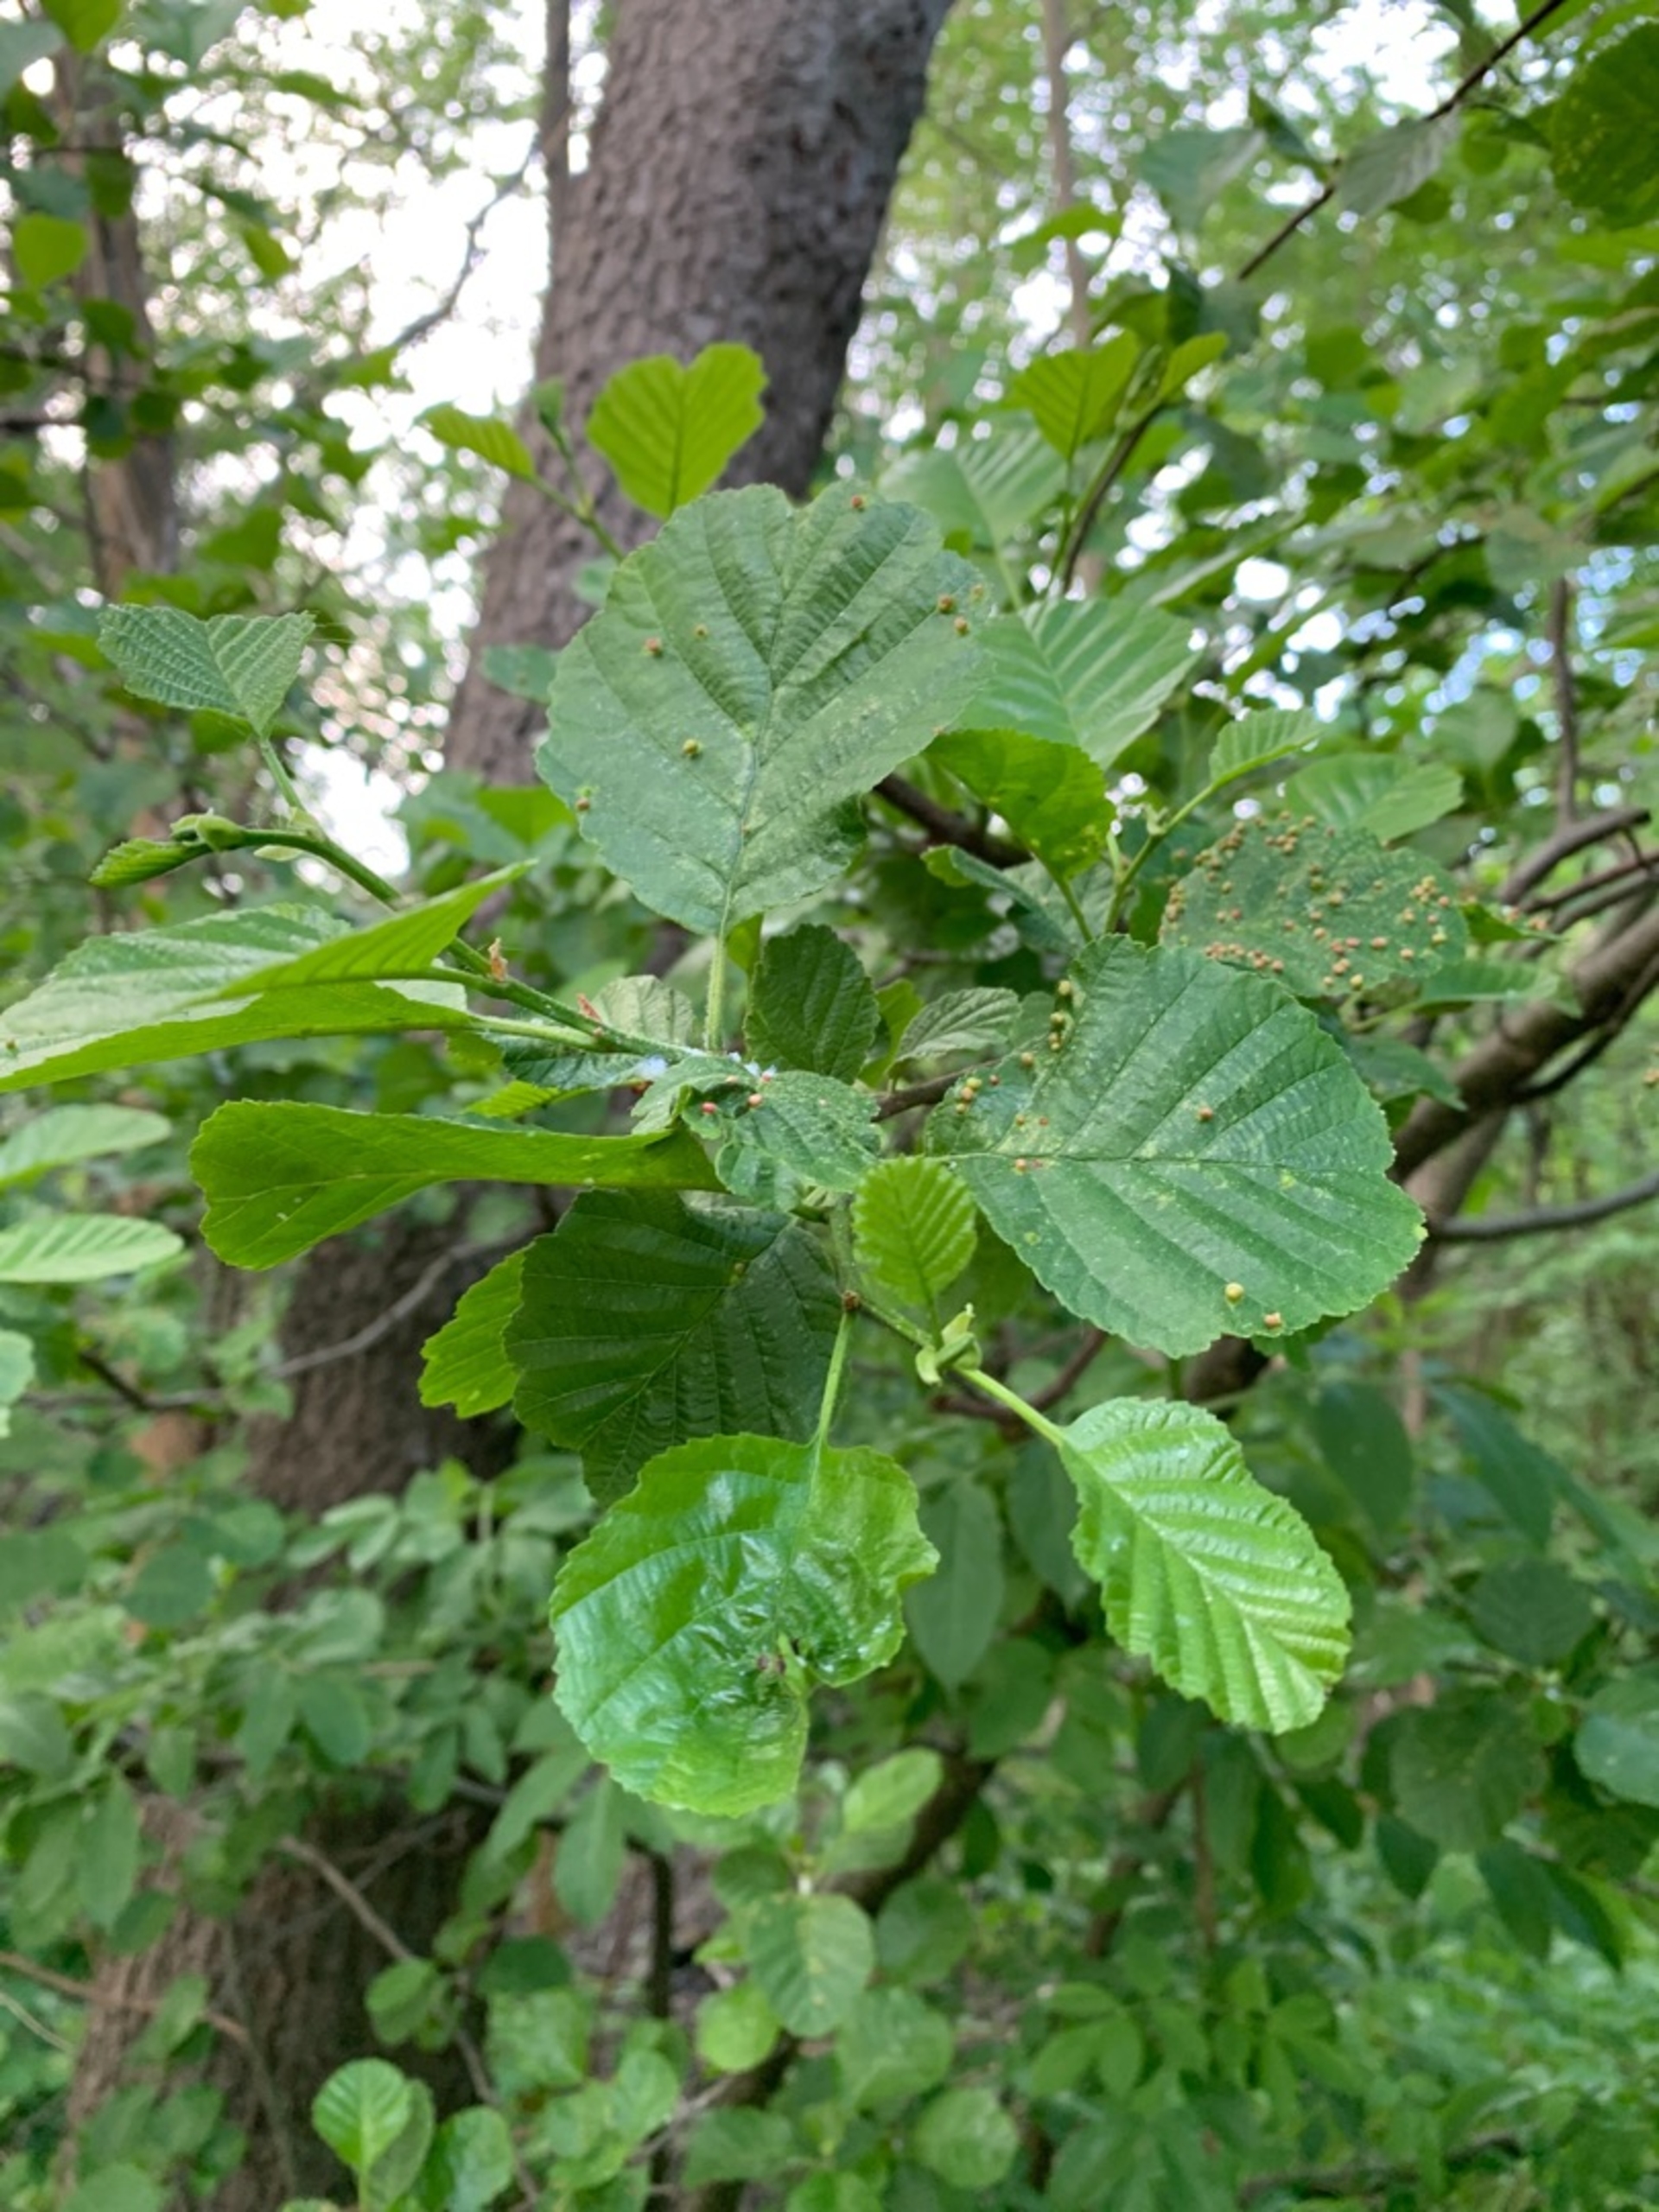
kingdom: Plantae
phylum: Tracheophyta
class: Magnoliopsida
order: Fagales
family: Betulaceae
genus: Alnus
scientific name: Alnus glutinosa
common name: Rød-el
